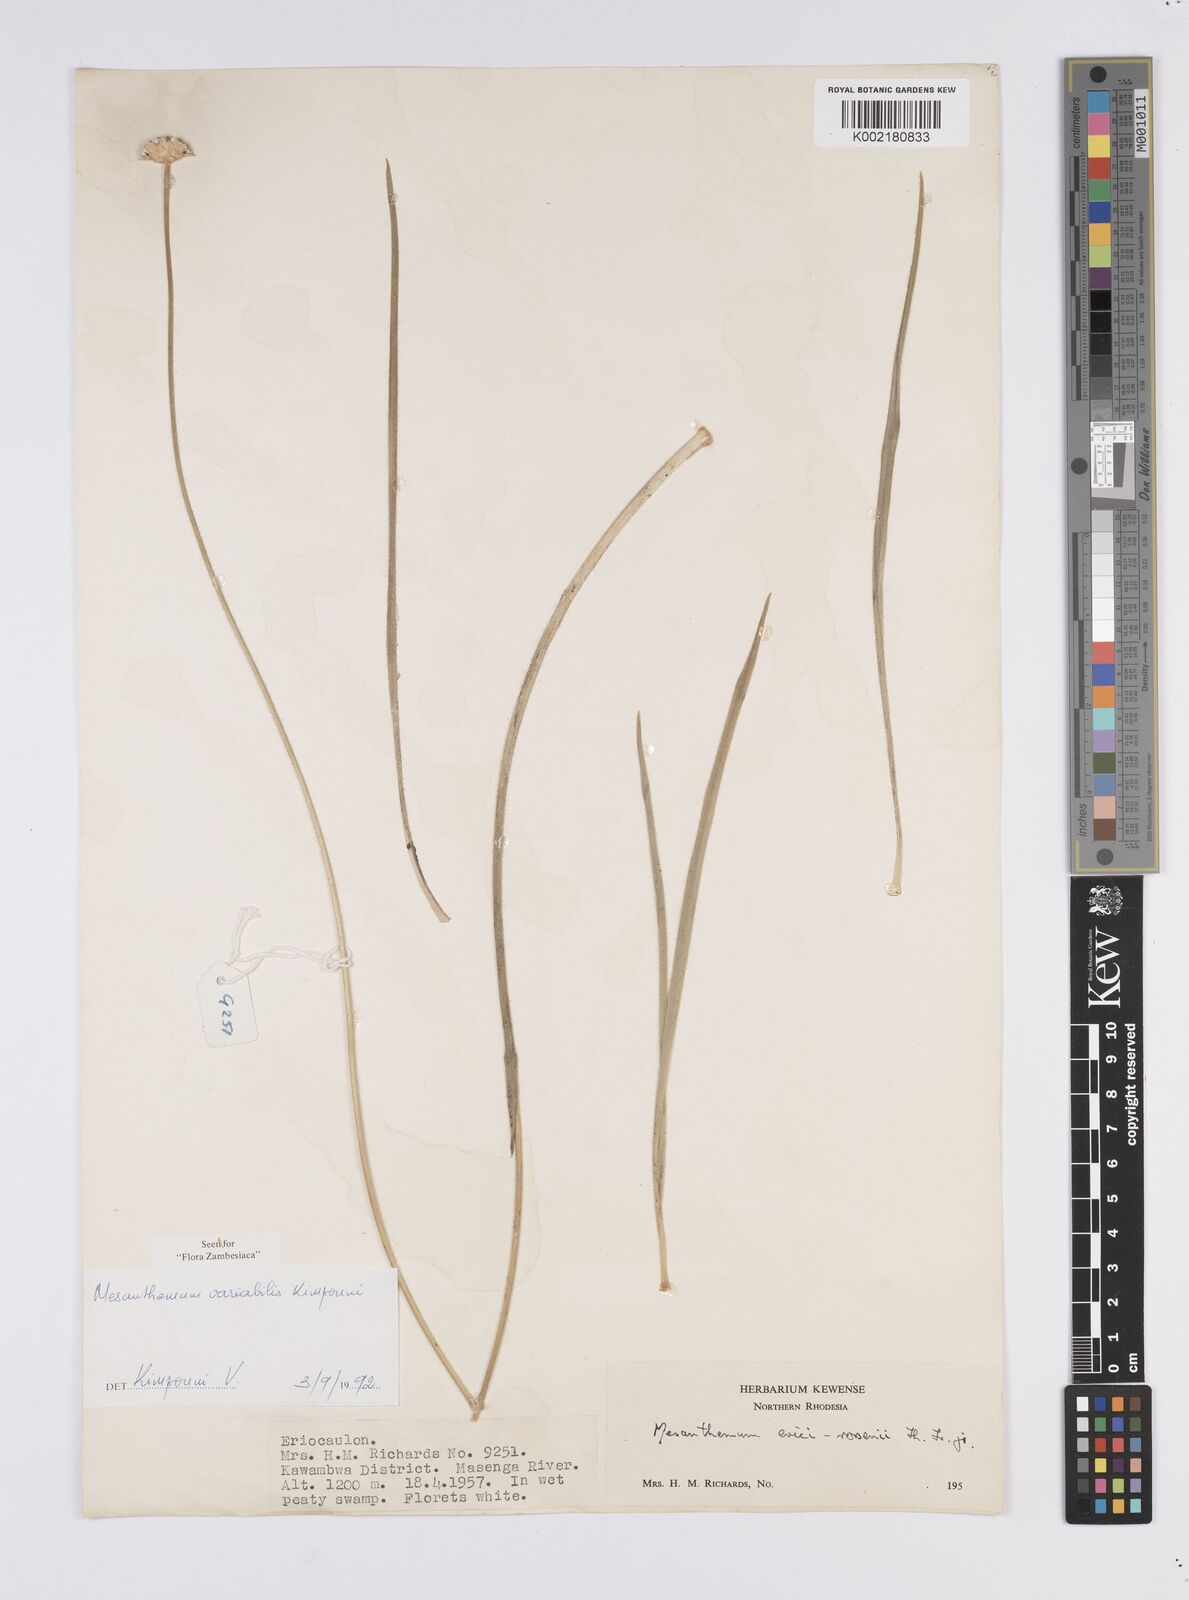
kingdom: Plantae
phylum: Tracheophyta
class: Liliopsida
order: Poales
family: Eriocaulaceae
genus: Mesanthemum
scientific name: Mesanthemum variabile
